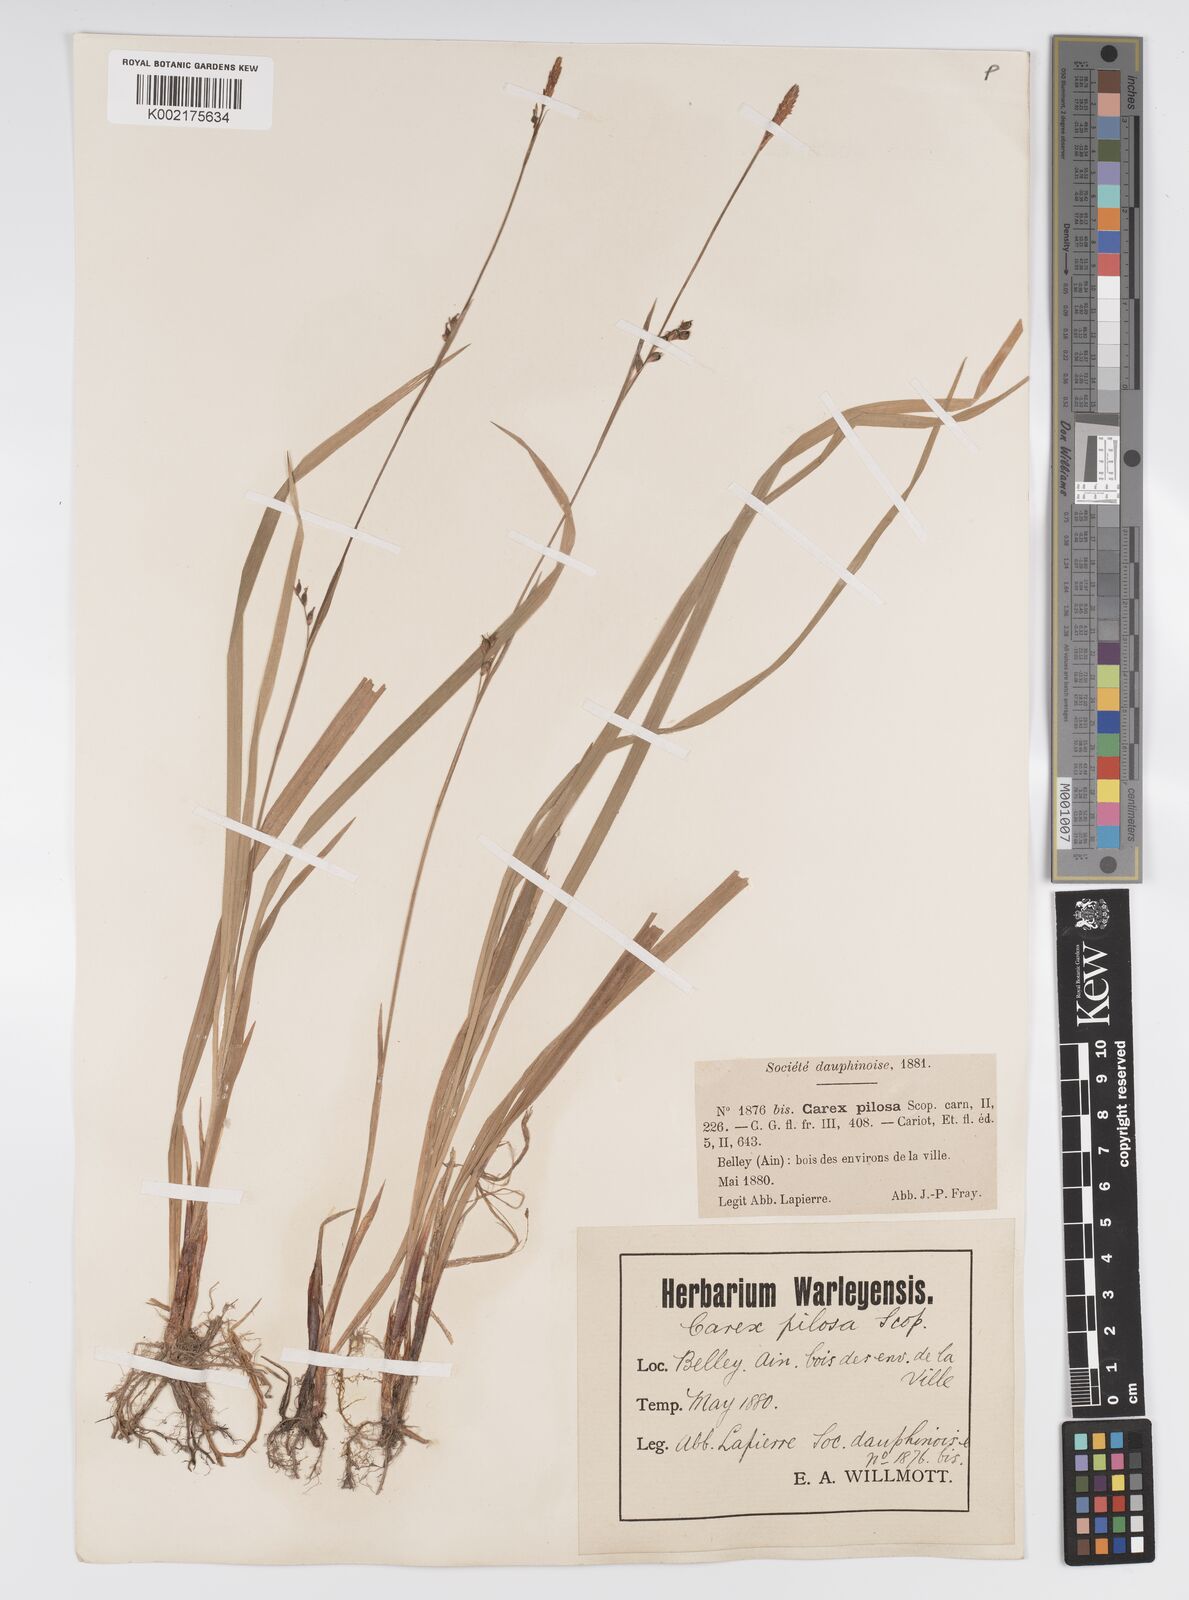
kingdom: Plantae
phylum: Tracheophyta
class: Liliopsida
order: Poales
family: Cyperaceae
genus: Carex
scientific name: Carex pilosa
